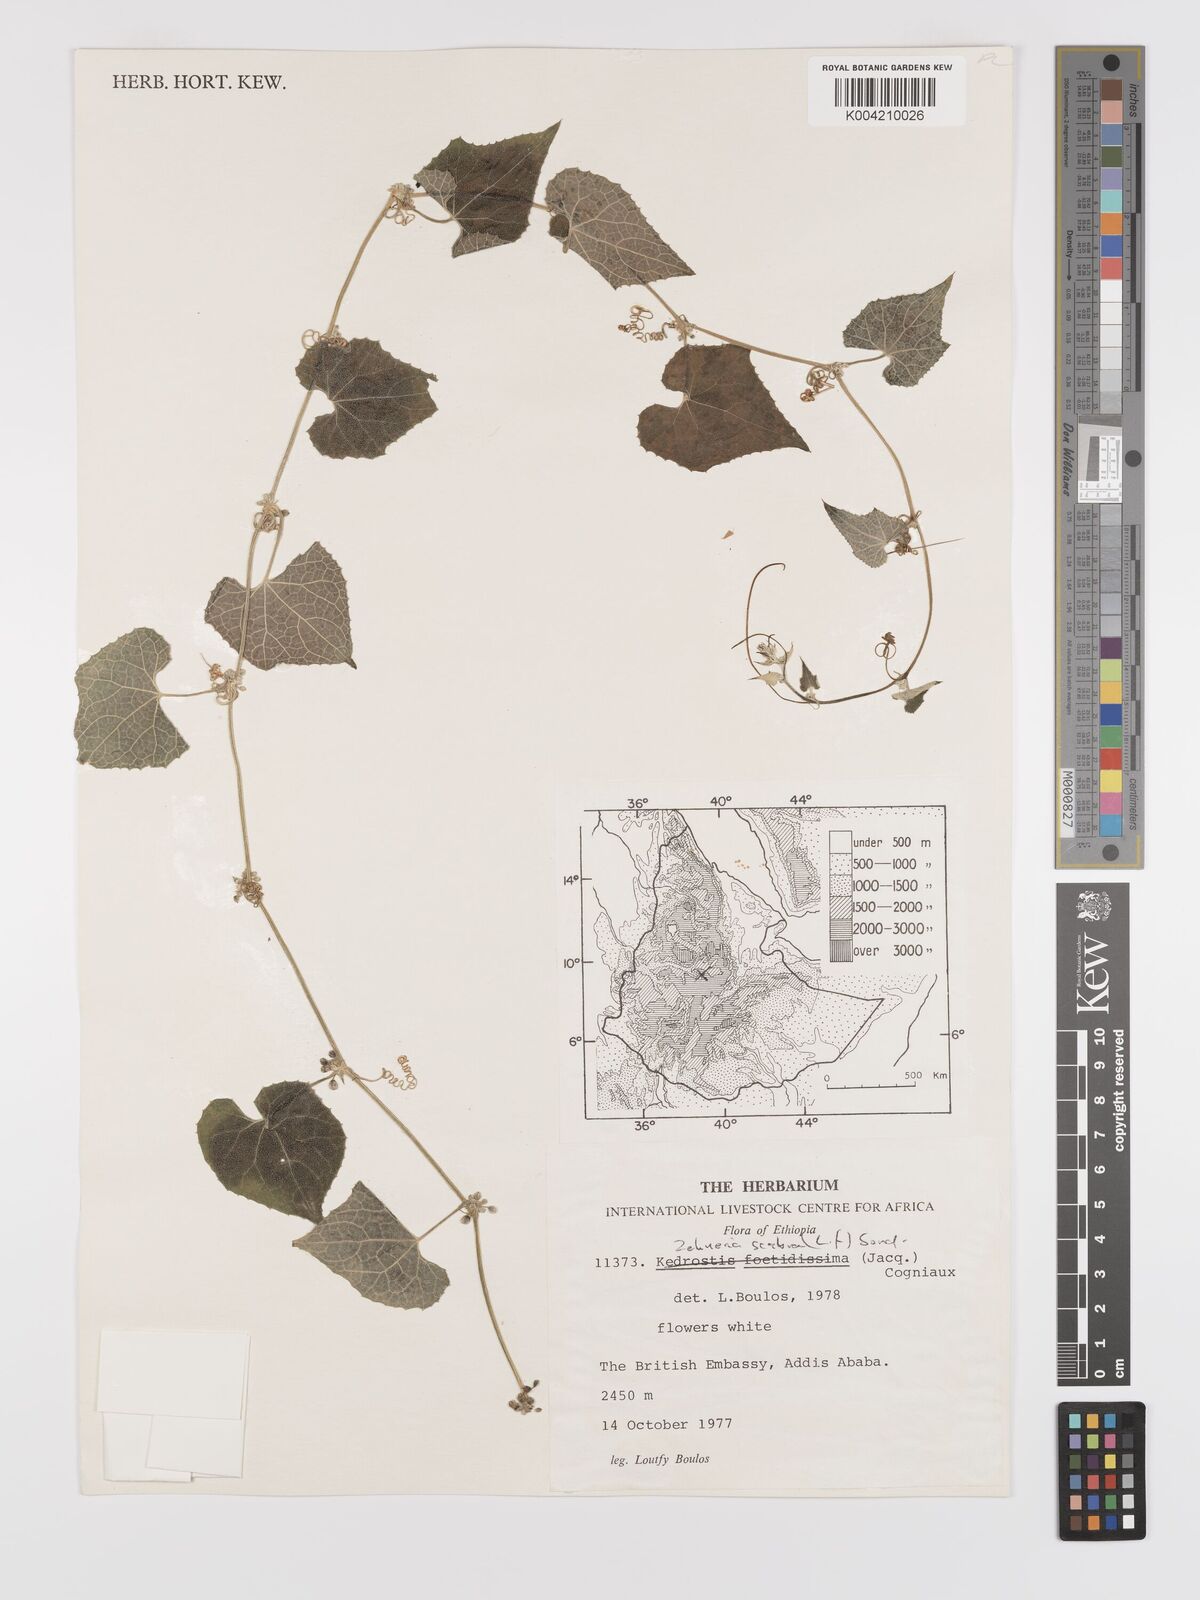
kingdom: Plantae
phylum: Tracheophyta
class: Magnoliopsida
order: Cucurbitales
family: Cucurbitaceae
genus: Zehneria
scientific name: Zehneria scabra
